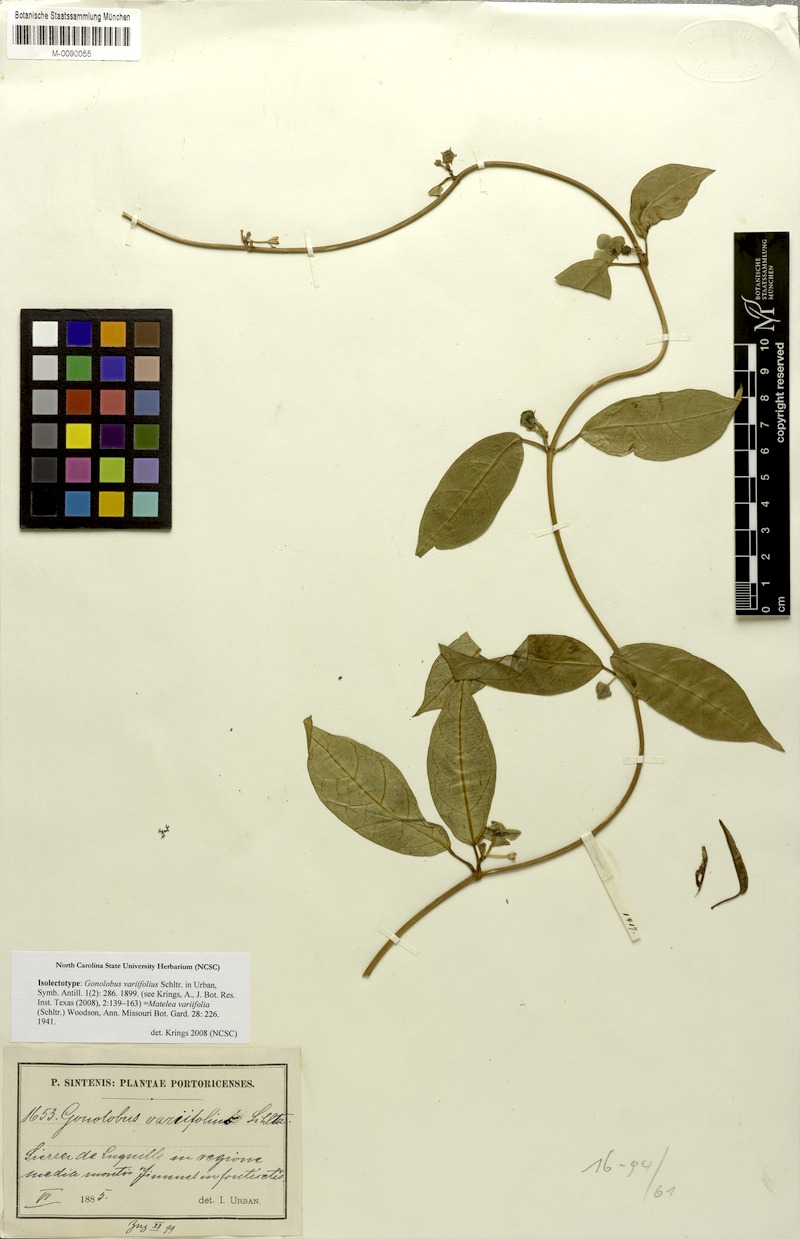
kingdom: Plantae
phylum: Tracheophyta
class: Magnoliopsida
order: Gentianales
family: Apocynaceae
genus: Matelea
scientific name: Matelea variifolia
